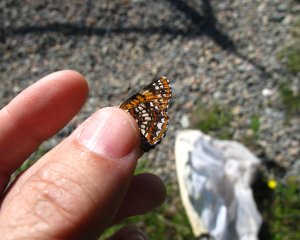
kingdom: Animalia
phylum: Arthropoda
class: Insecta
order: Lepidoptera
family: Nymphalidae
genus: Boloria
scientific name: Boloria selene
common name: Silver-bordered Fritillary
